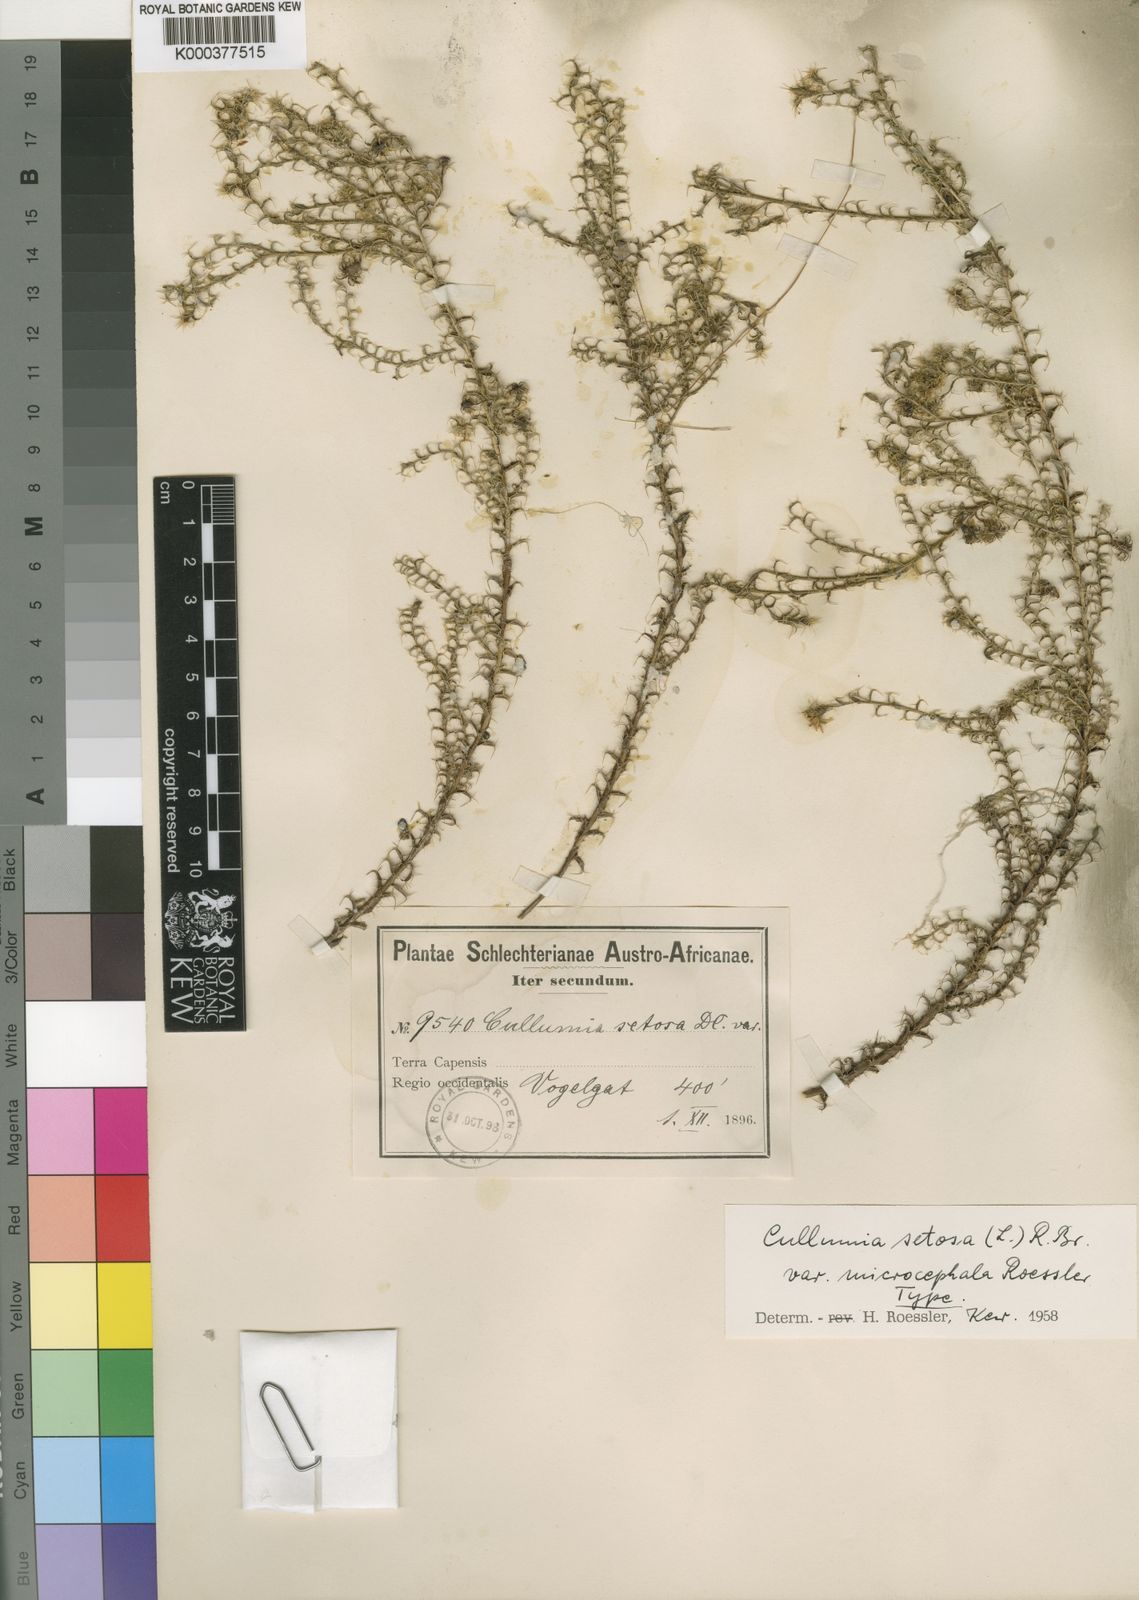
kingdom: Plantae
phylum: Tracheophyta
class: Magnoliopsida
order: Asterales
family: Asteraceae
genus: Cullumia
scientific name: Cullumia setosa
